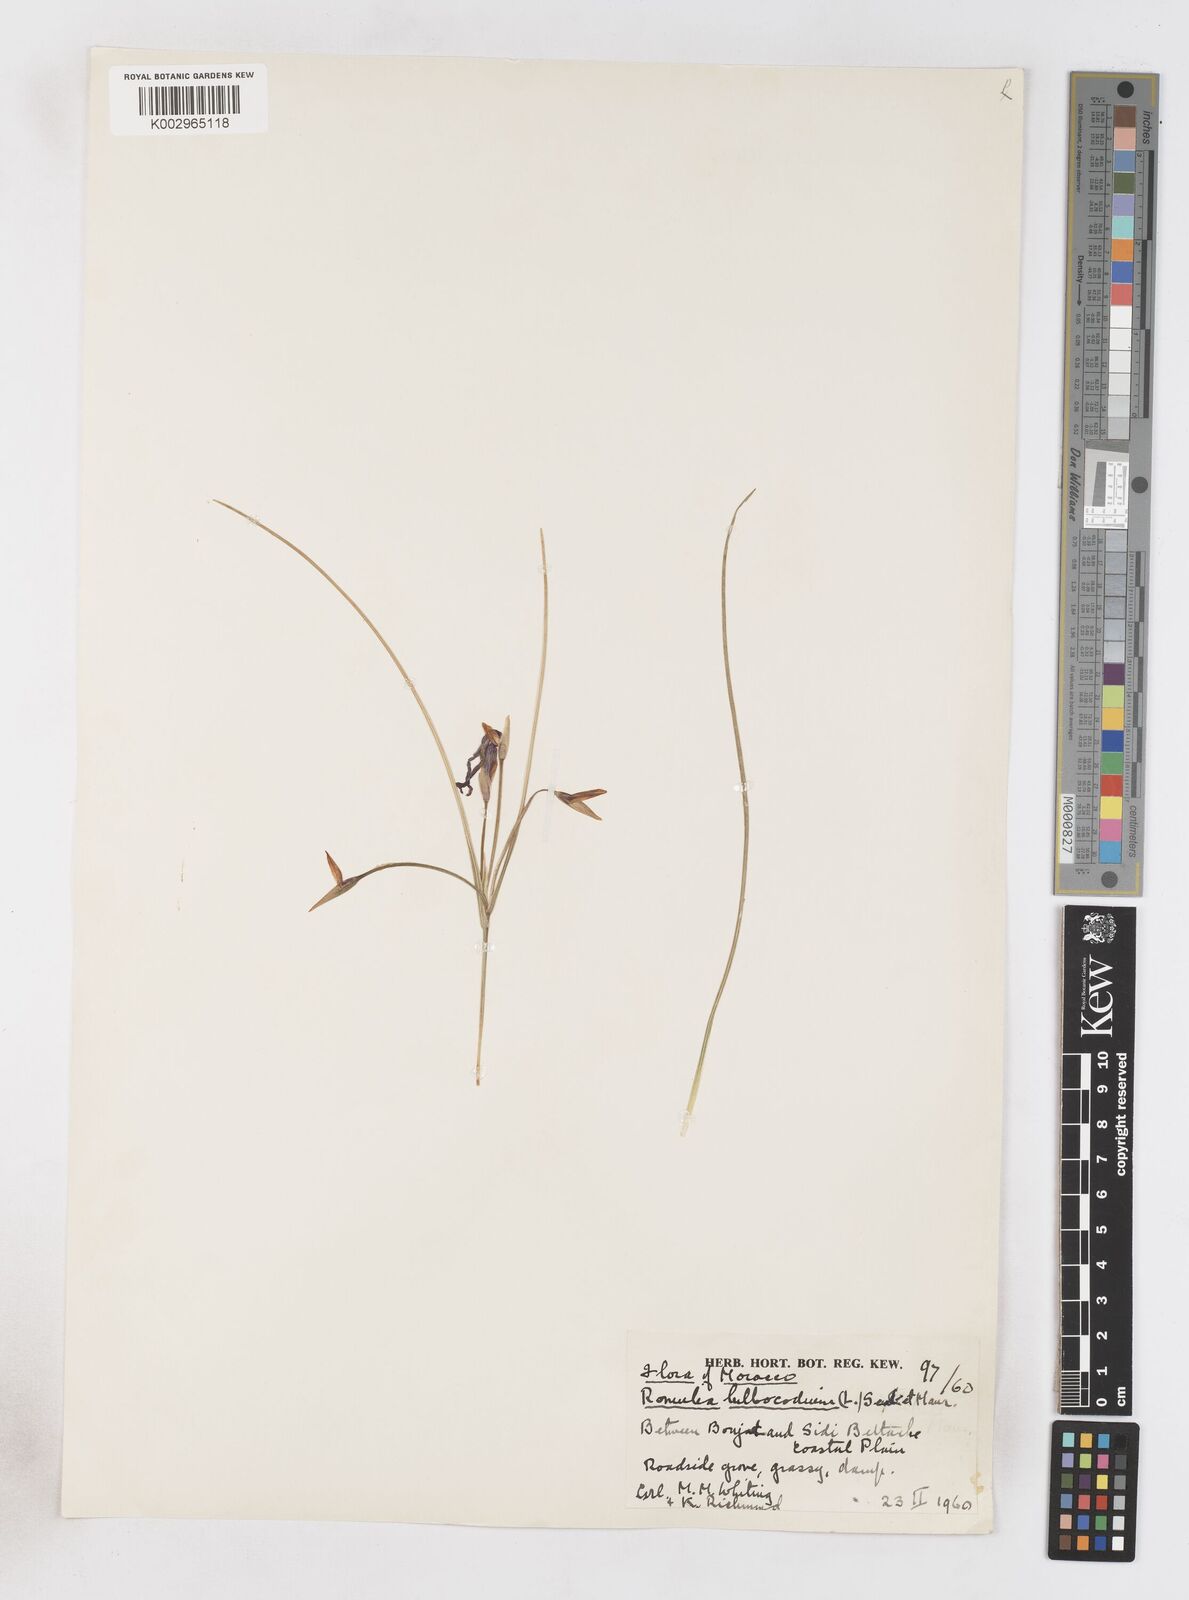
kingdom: Plantae
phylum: Tracheophyta
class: Liliopsida
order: Asparagales
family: Iridaceae
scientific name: Iridaceae
